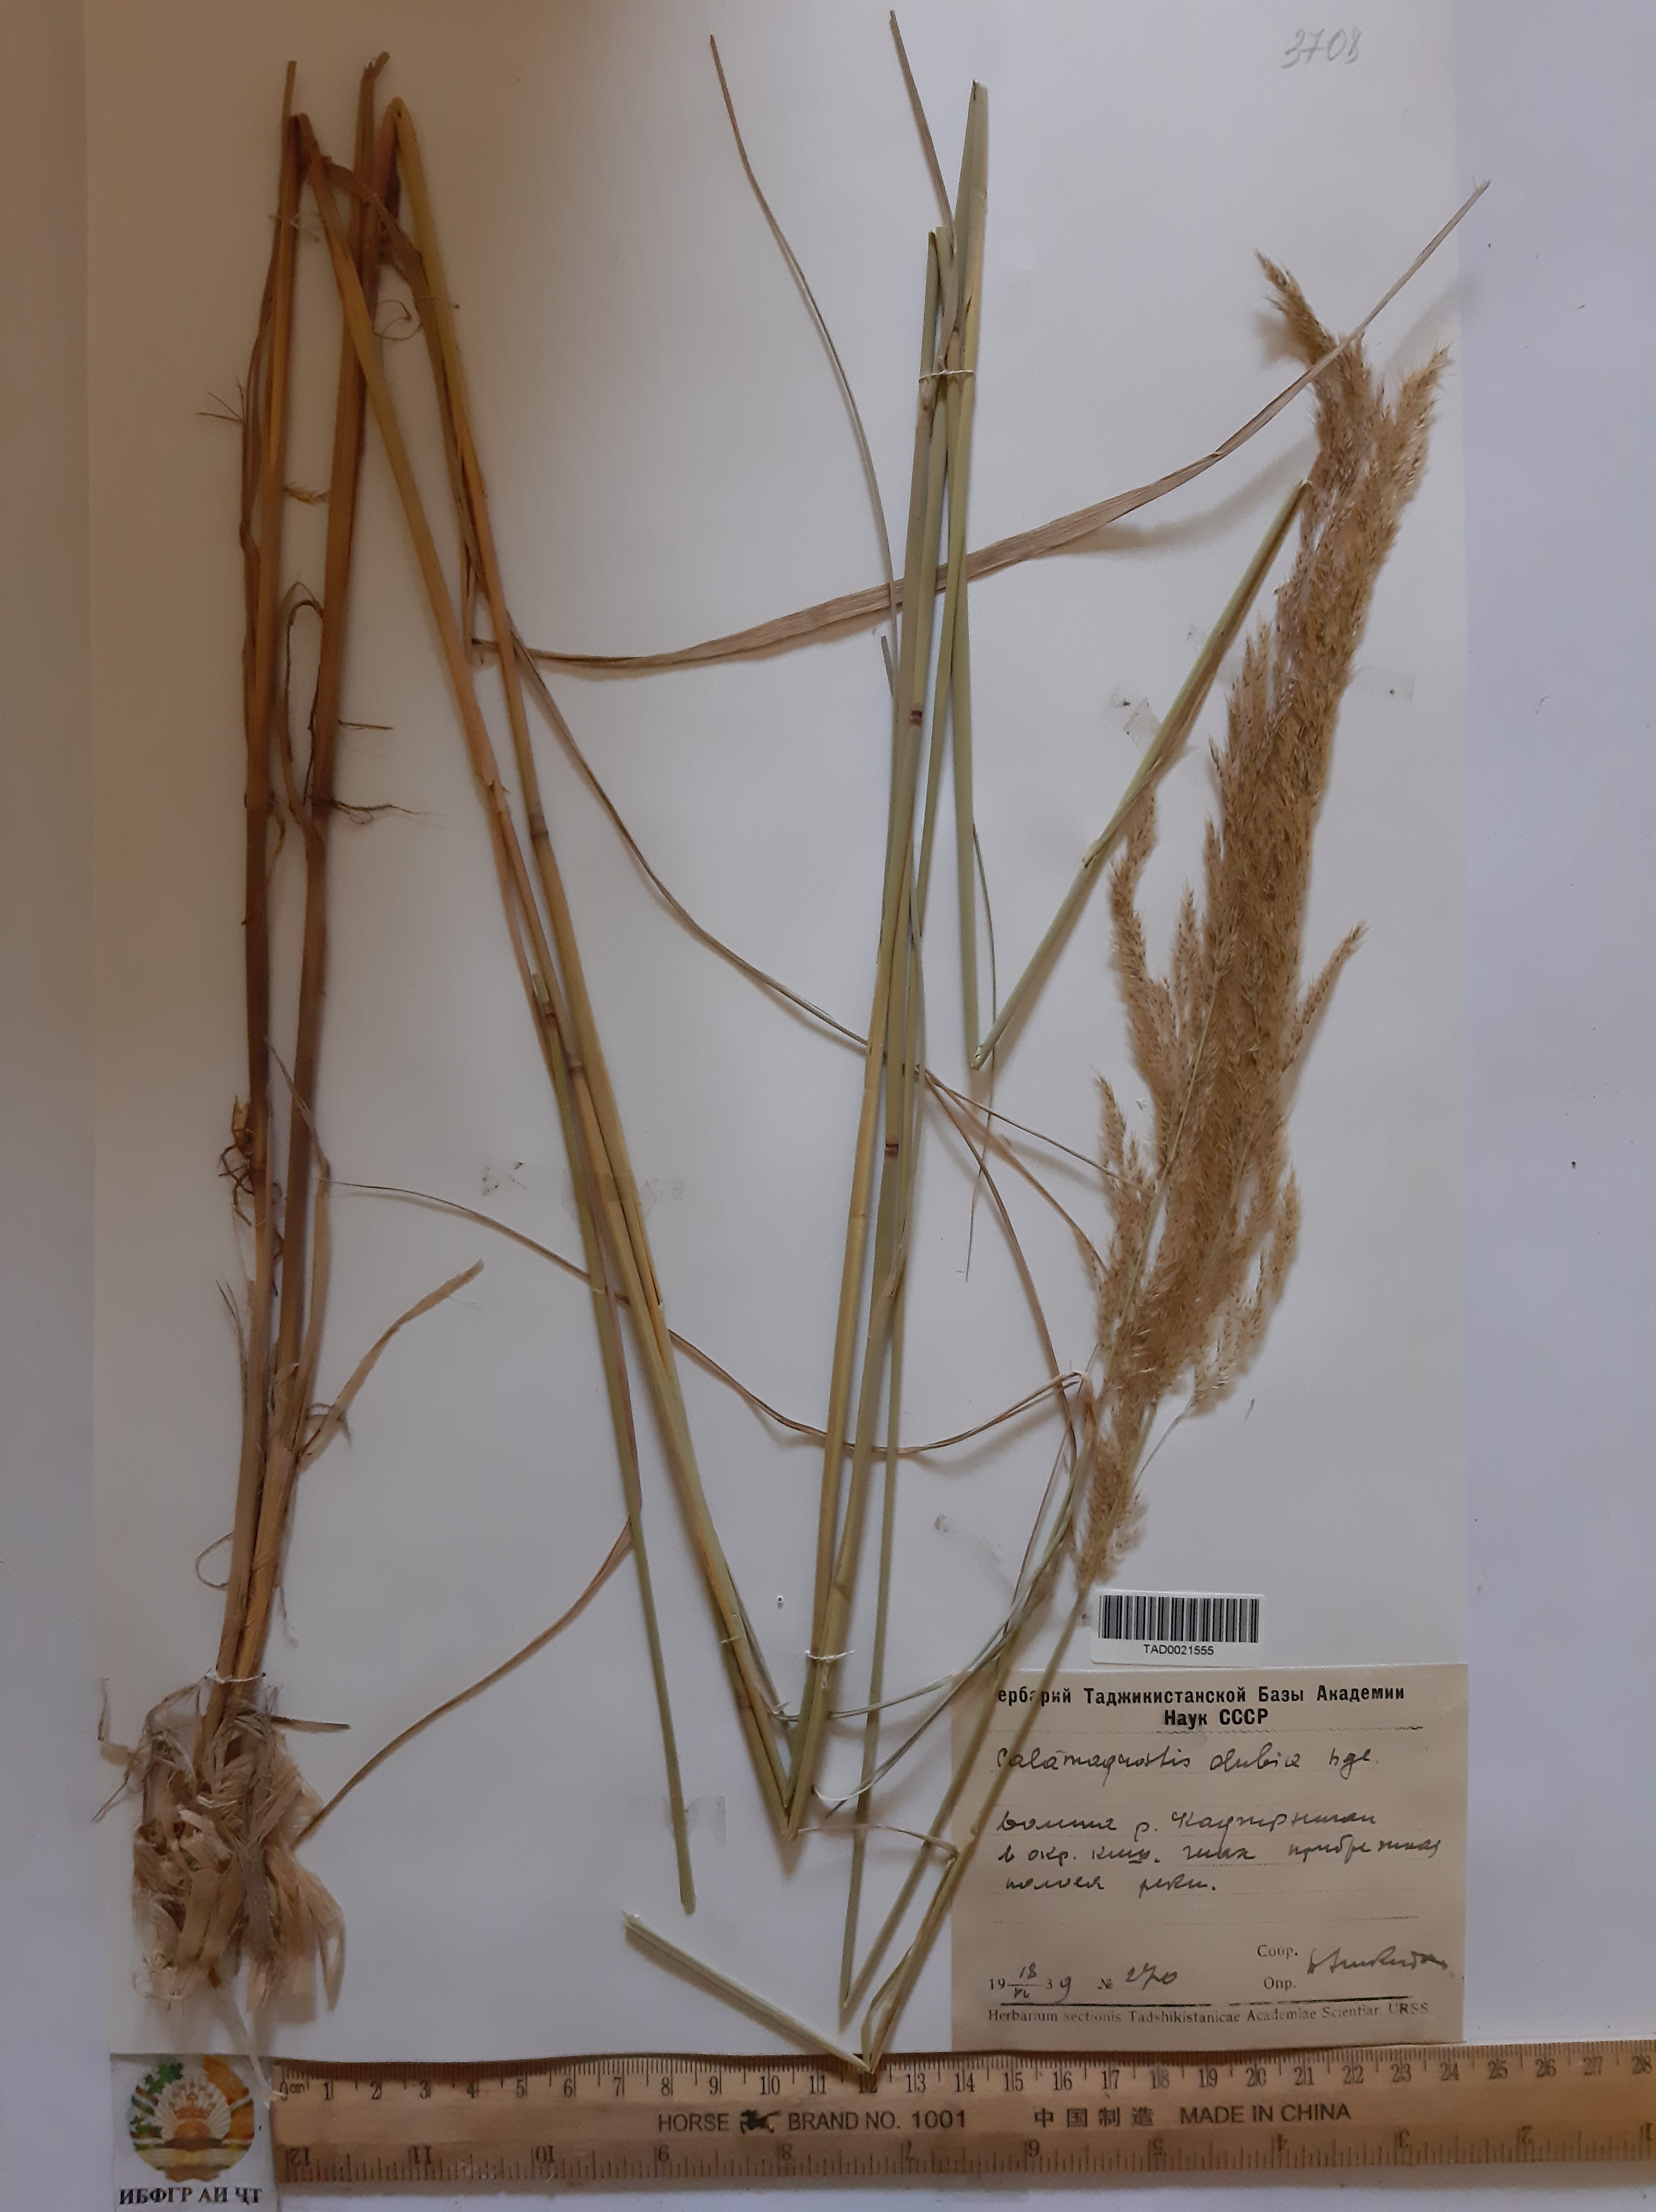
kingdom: Plantae
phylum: Tracheophyta
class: Liliopsida
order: Poales
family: Poaceae
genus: Calamagrostis
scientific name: Calamagrostis pseudophragmites
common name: Coastal small-reed
